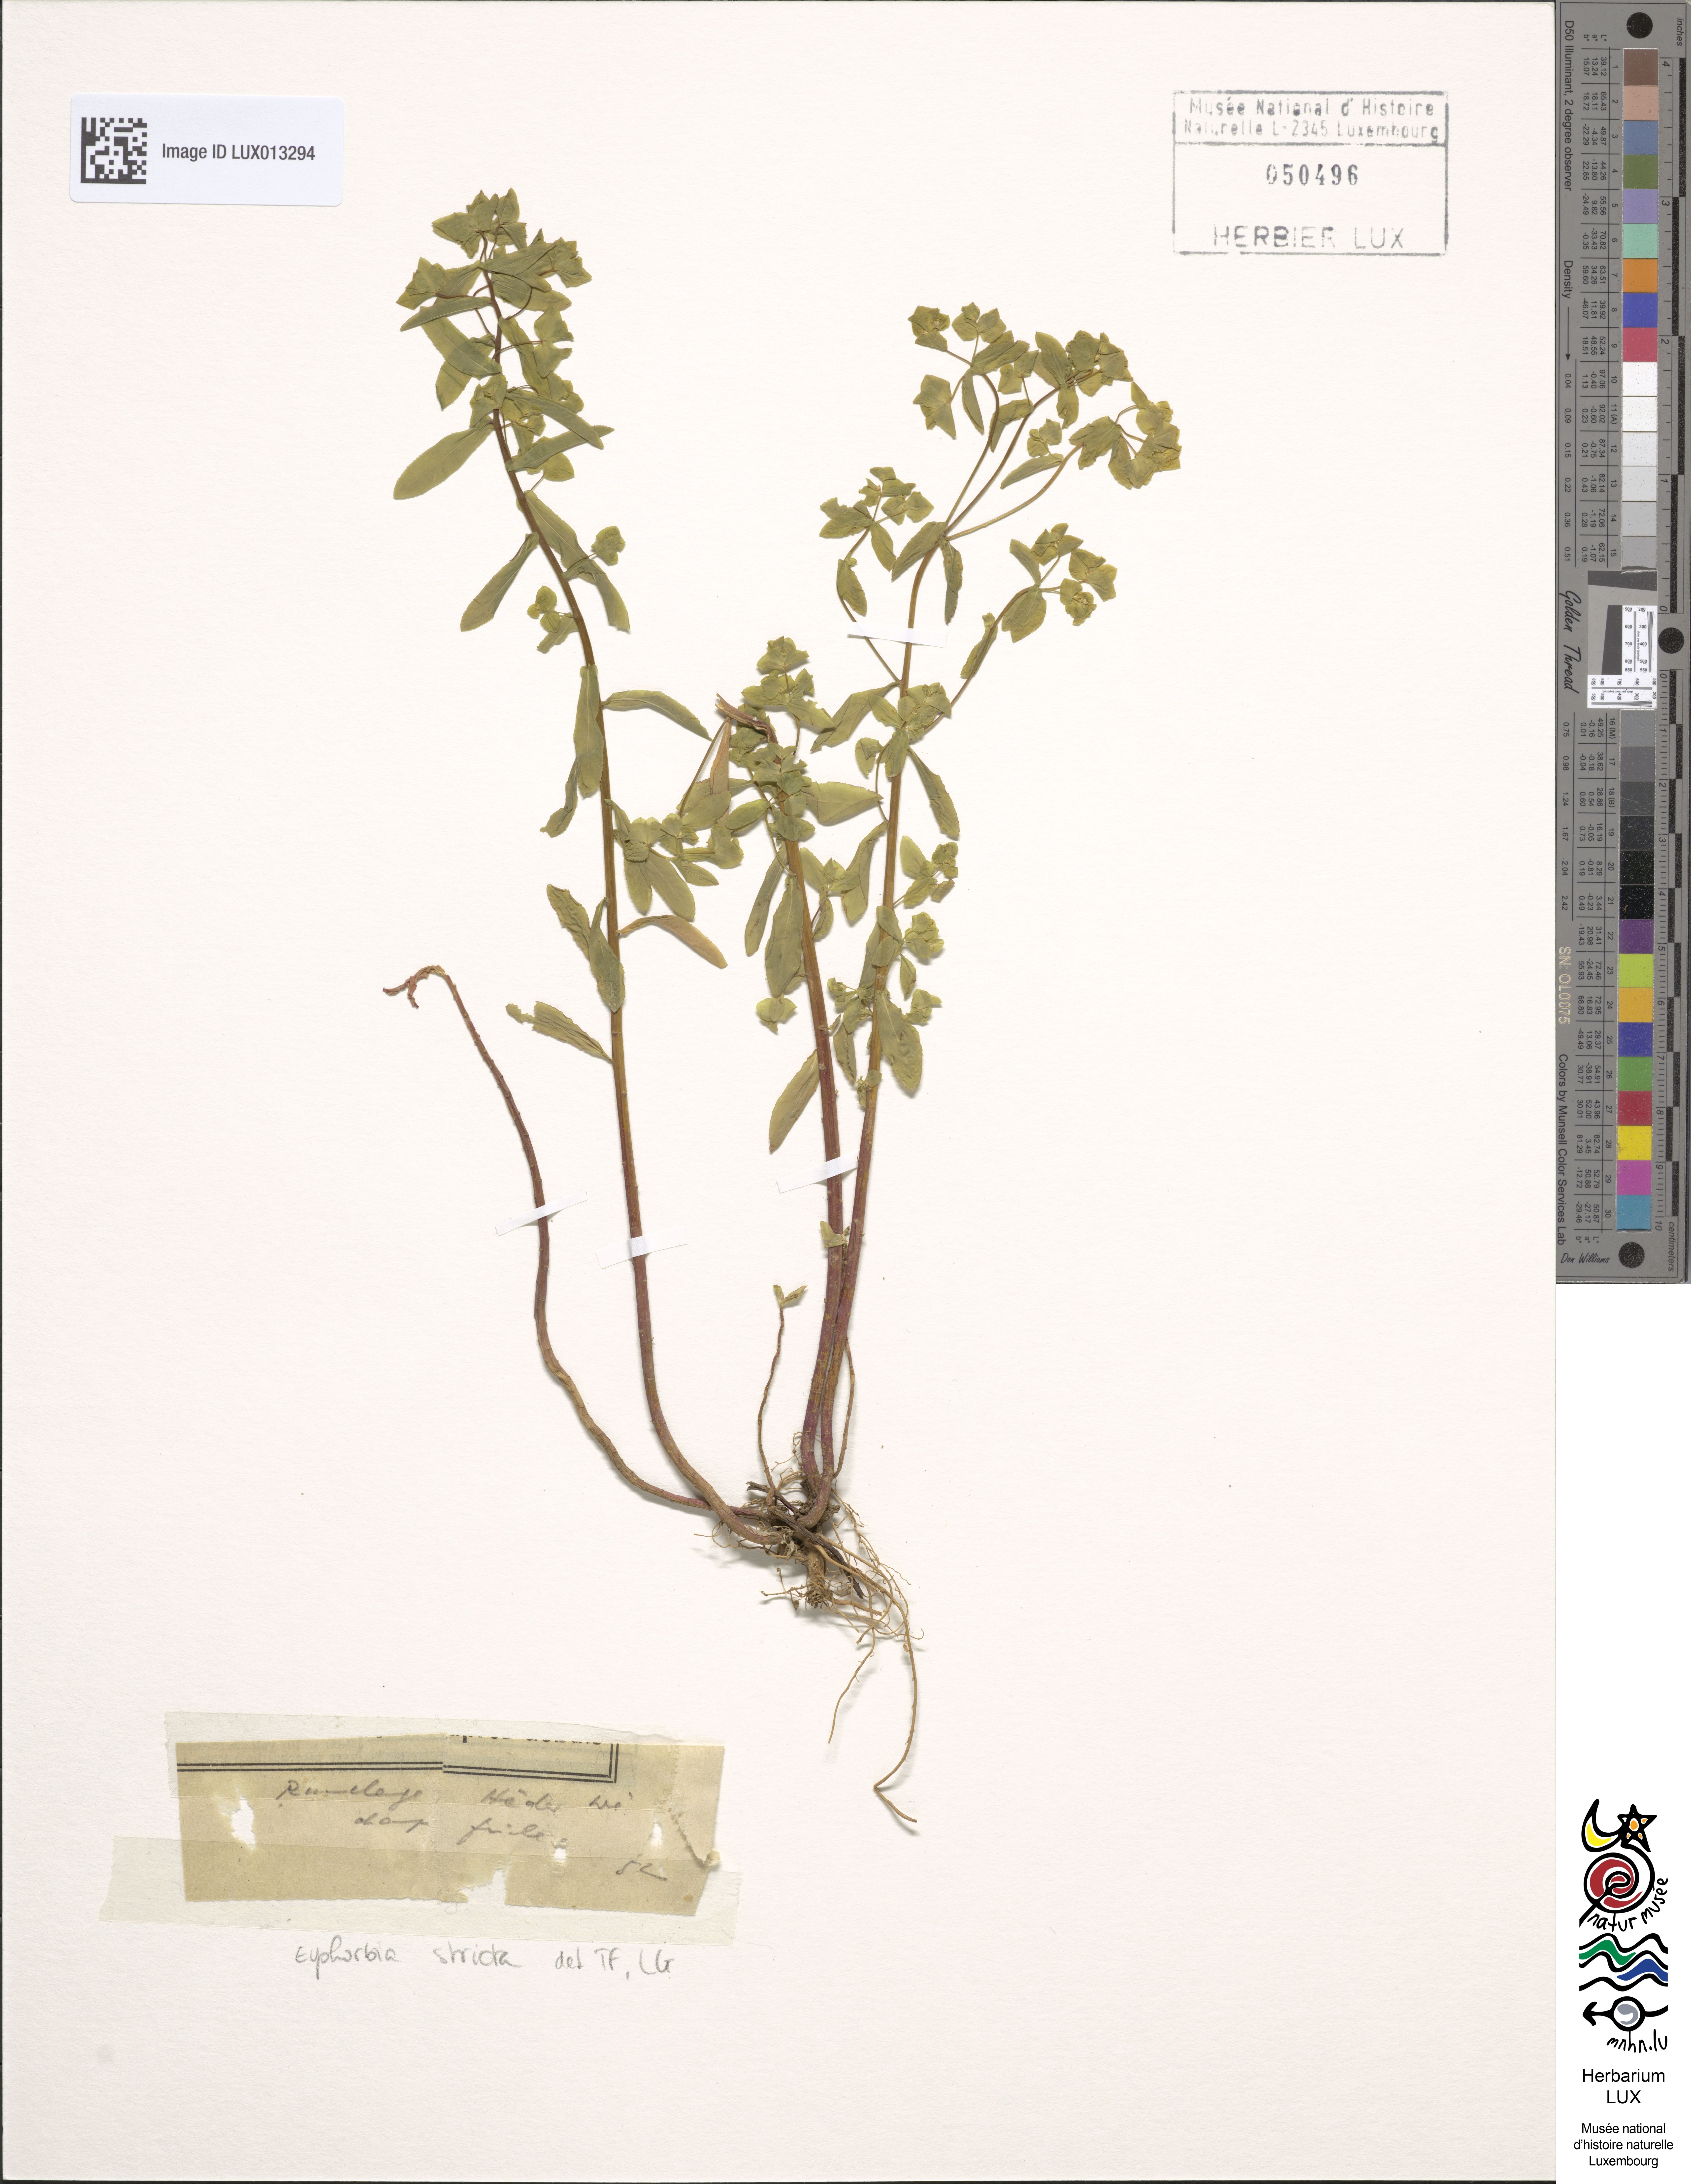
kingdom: Plantae
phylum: Tracheophyta
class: Magnoliopsida
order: Malpighiales
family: Euphorbiaceae
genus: Euphorbia
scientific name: Euphorbia stricta
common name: Upright spurge
